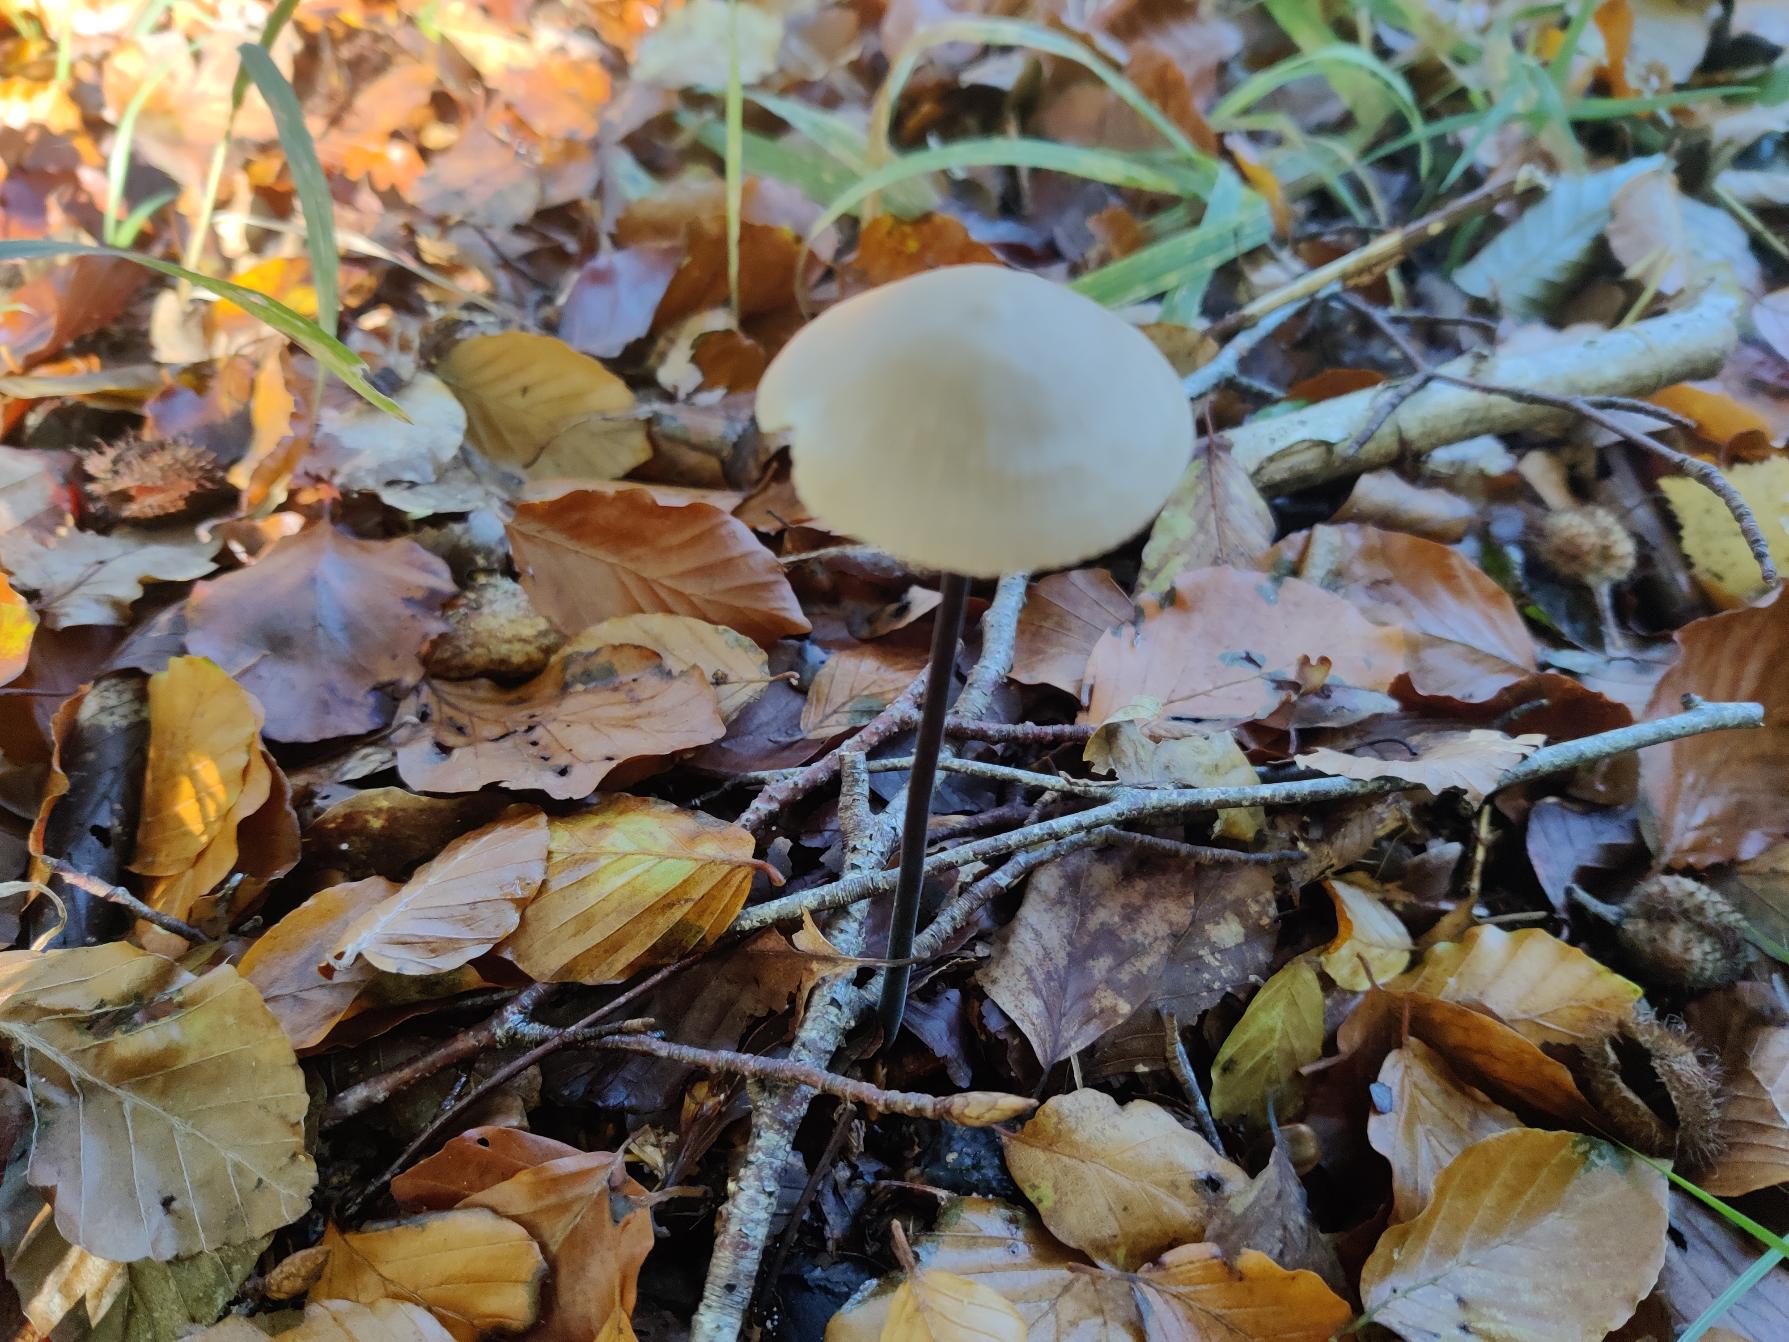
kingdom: Fungi
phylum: Basidiomycota
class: Agaricomycetes
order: Agaricales
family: Omphalotaceae
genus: Mycetinis
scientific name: Mycetinis alliaceus
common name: Stor løghat
